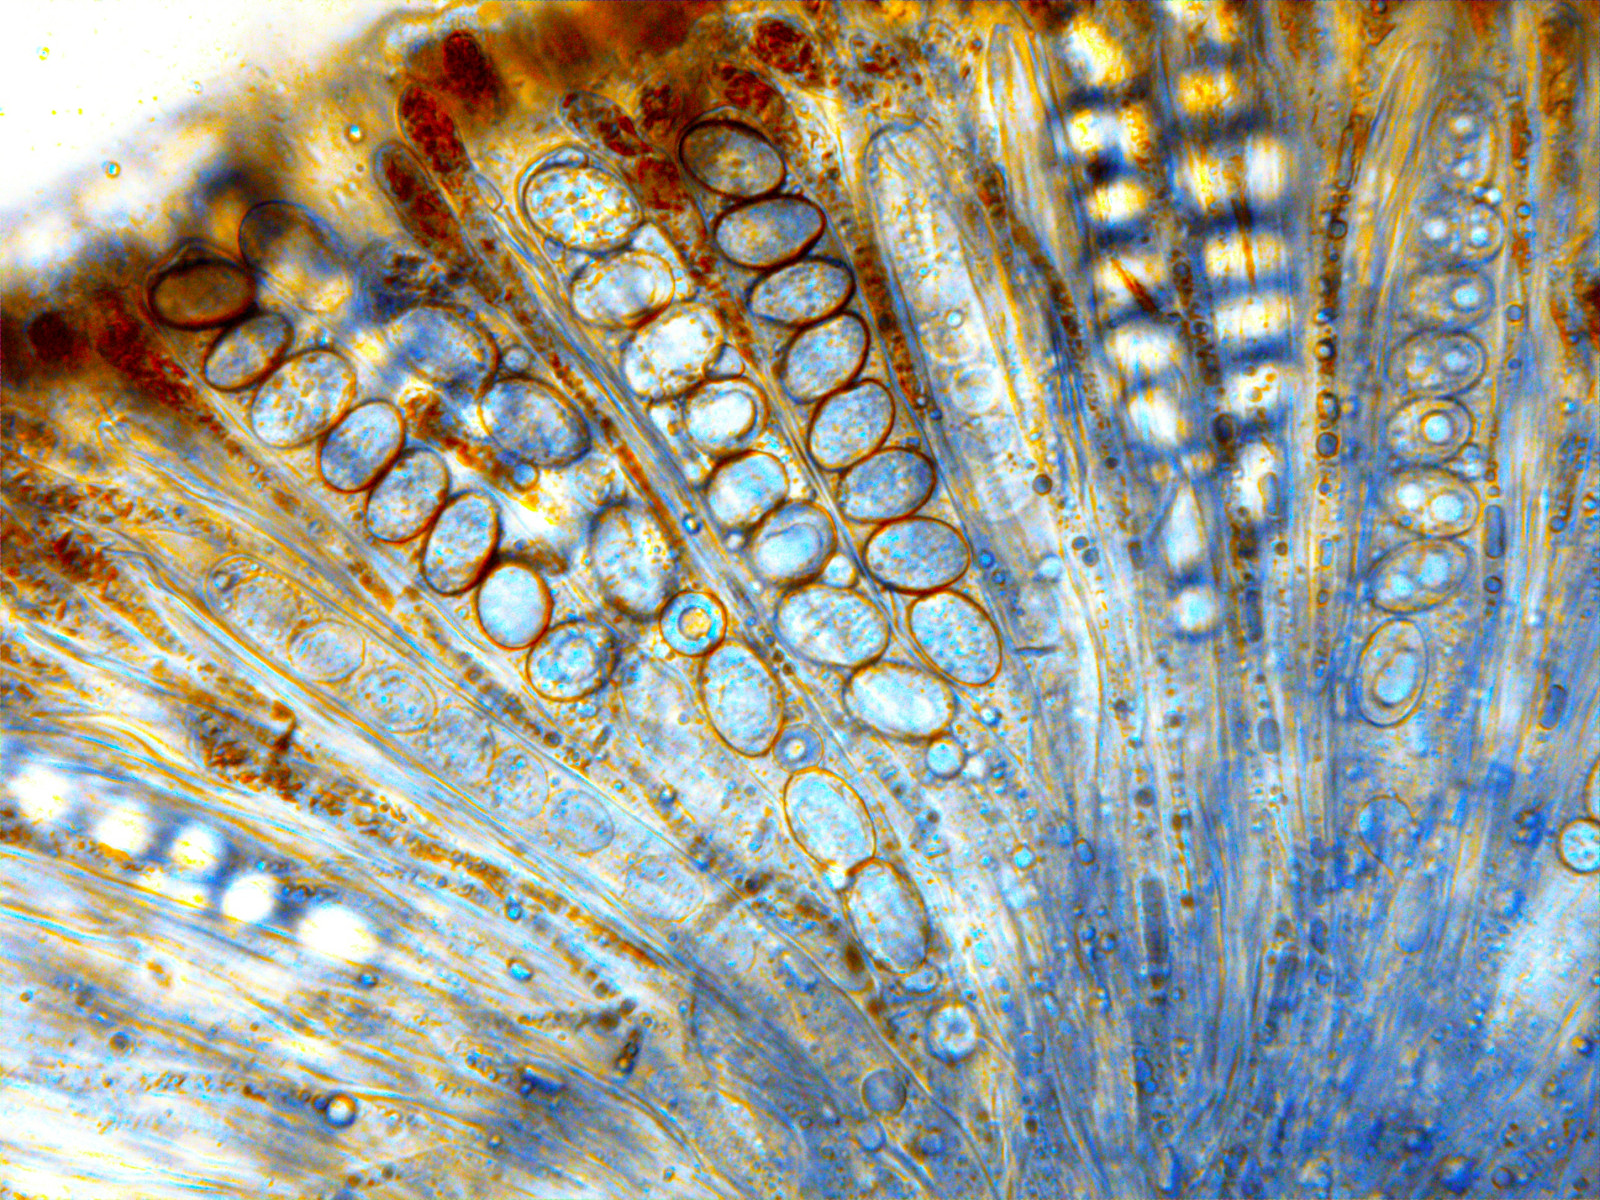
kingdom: Fungi
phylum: Ascomycota
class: Pezizomycetes
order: Pezizales
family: Pyronemataceae
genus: Scutellinia
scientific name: Scutellinia scutellata
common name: frynset skjoldbæger
